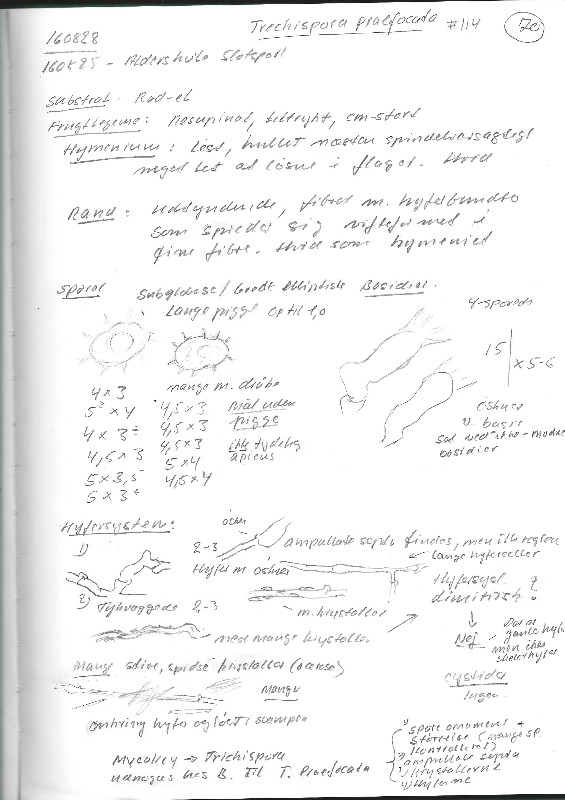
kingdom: Fungi
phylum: Basidiomycota
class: Agaricomycetes
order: Trechisporales
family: Sistotremataceae
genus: Trechispora
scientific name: Trechispora microspora
